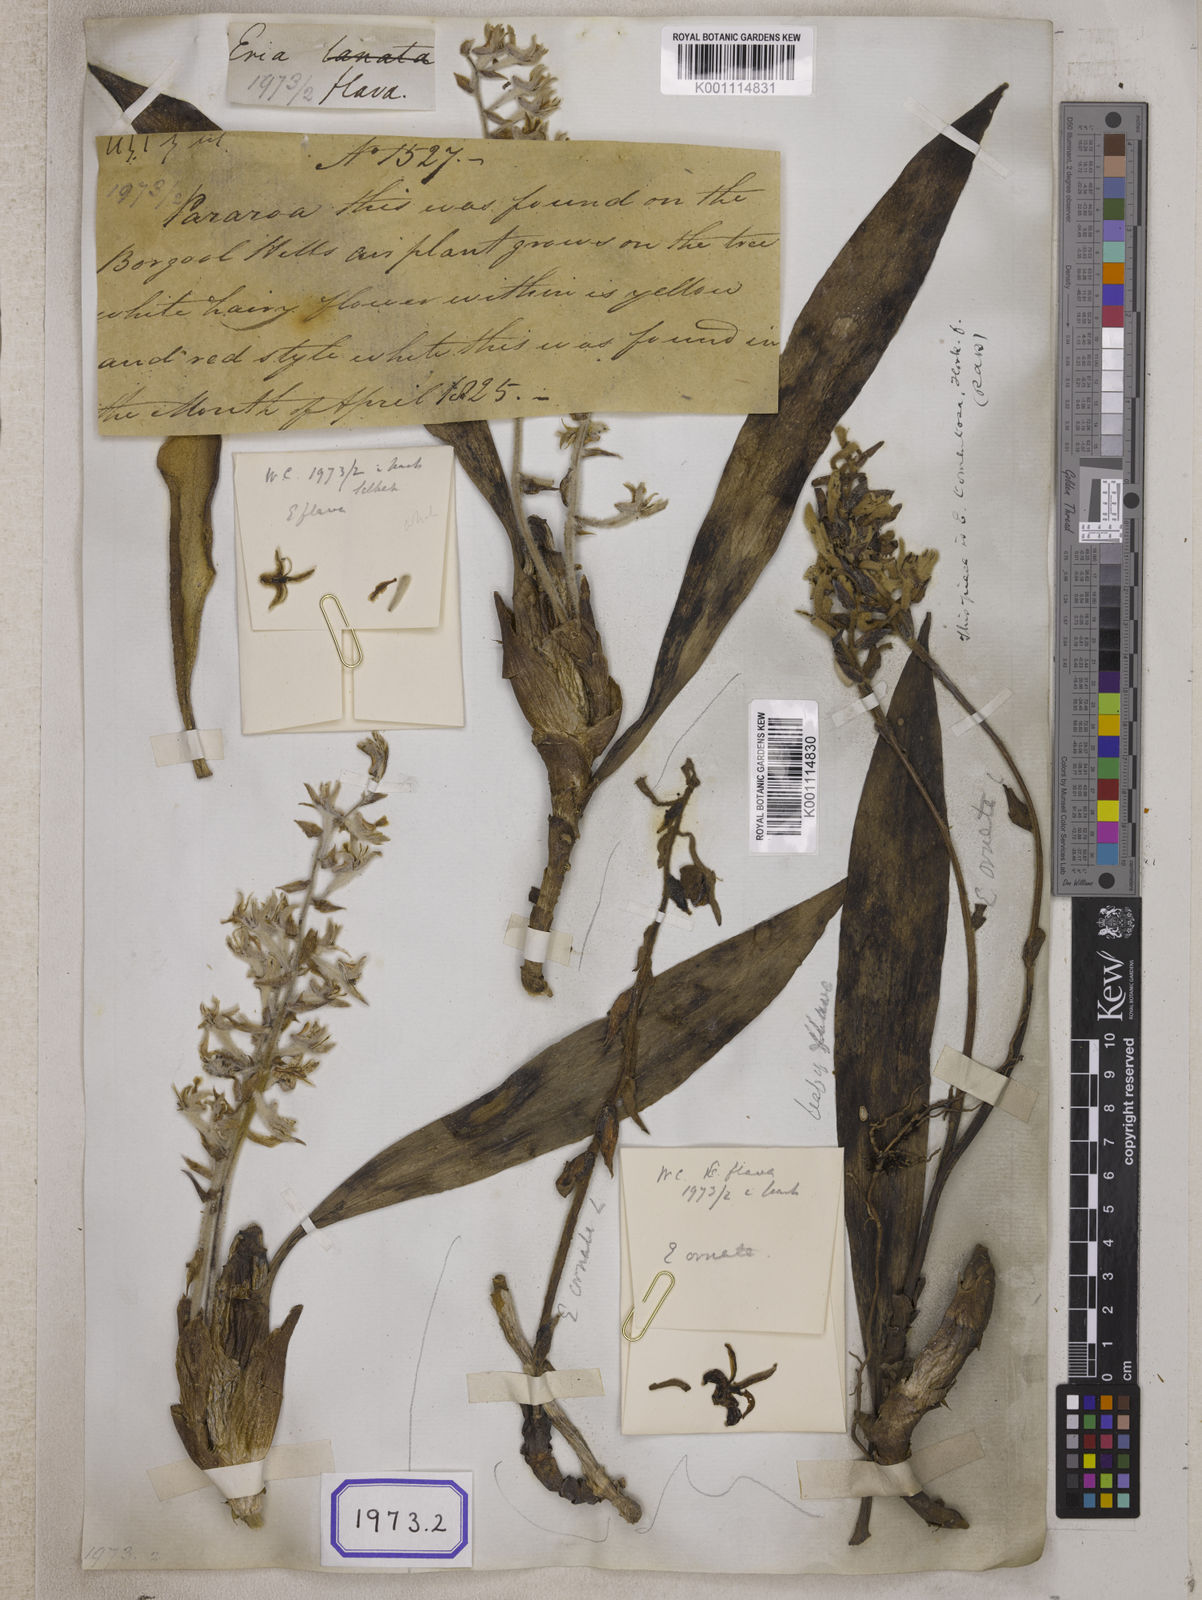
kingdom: Plantae
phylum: Tracheophyta
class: Liliopsida
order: Asparagales
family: Orchidaceae
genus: Dendrolirium
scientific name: Dendrolirium lasiopetalum
